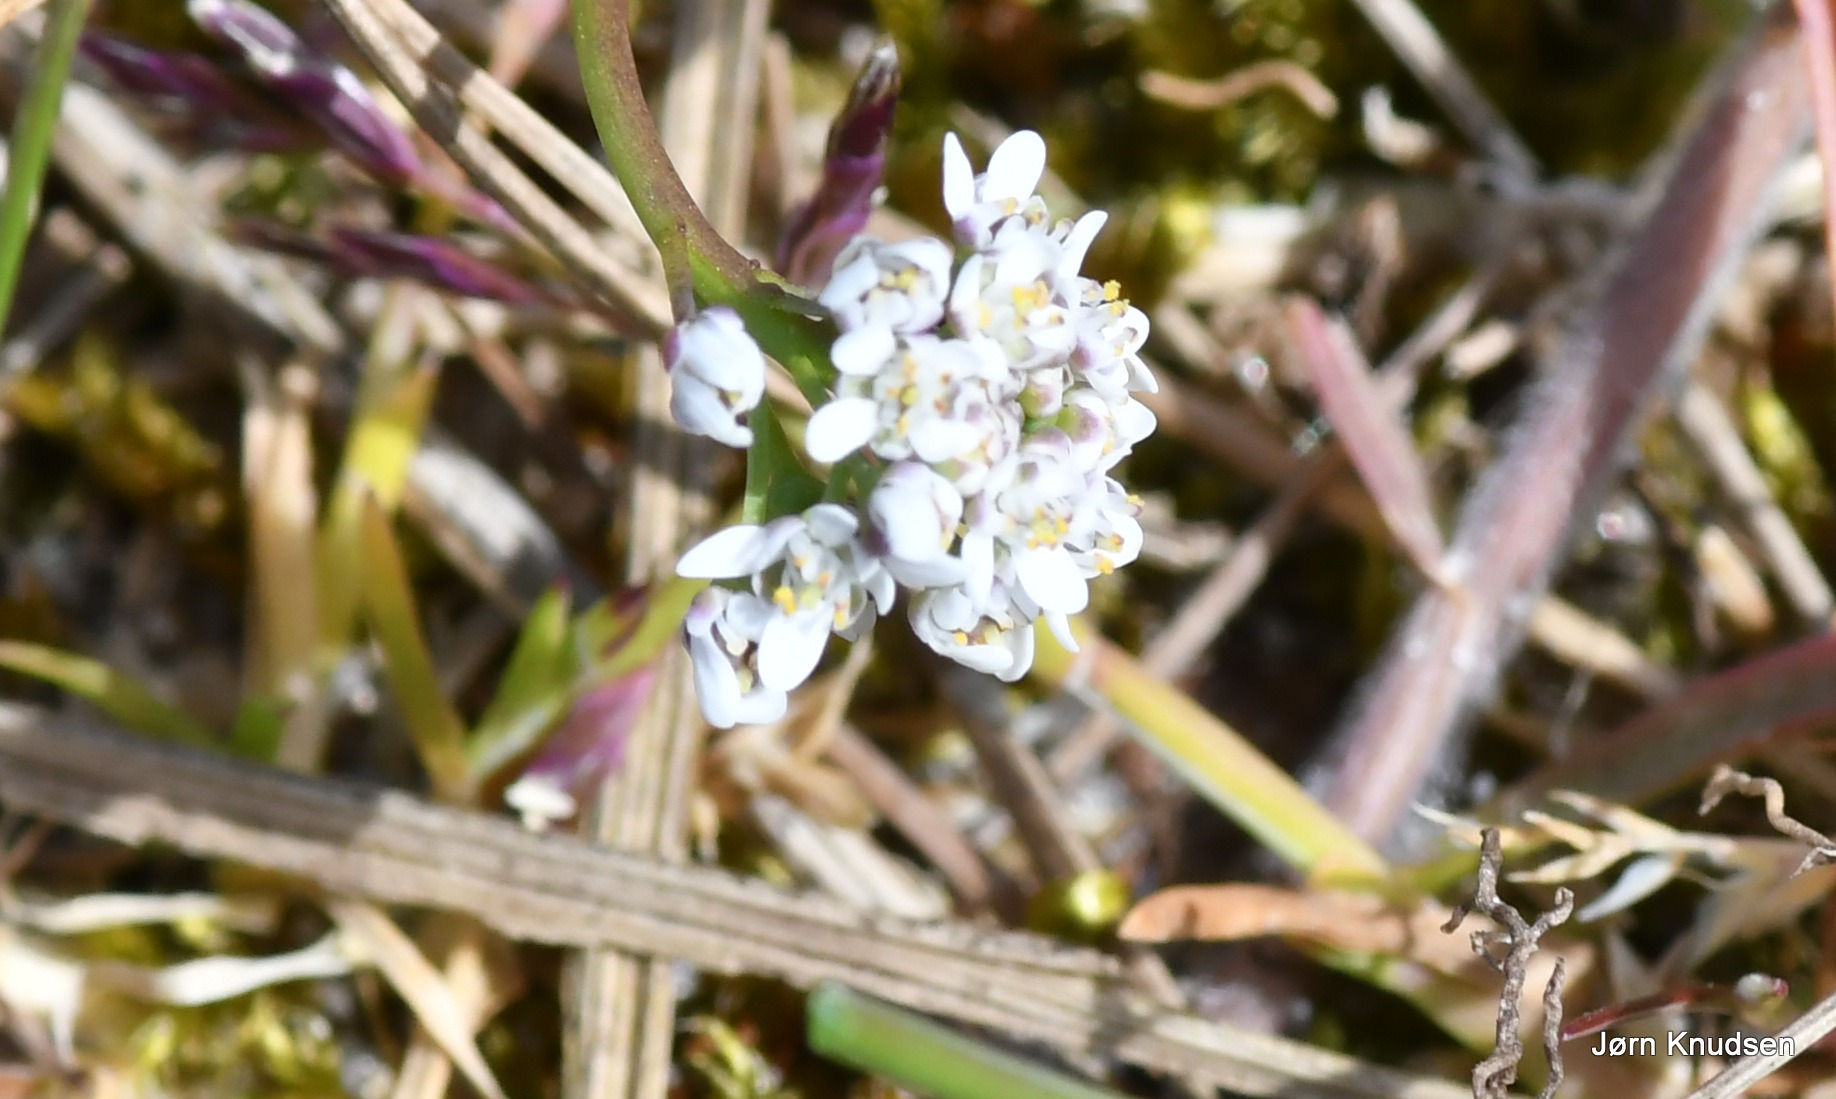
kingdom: Plantae
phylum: Tracheophyta
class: Magnoliopsida
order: Brassicales
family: Brassicaceae
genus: Teesdalia
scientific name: Teesdalia nudicaulis
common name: Flipkrave
